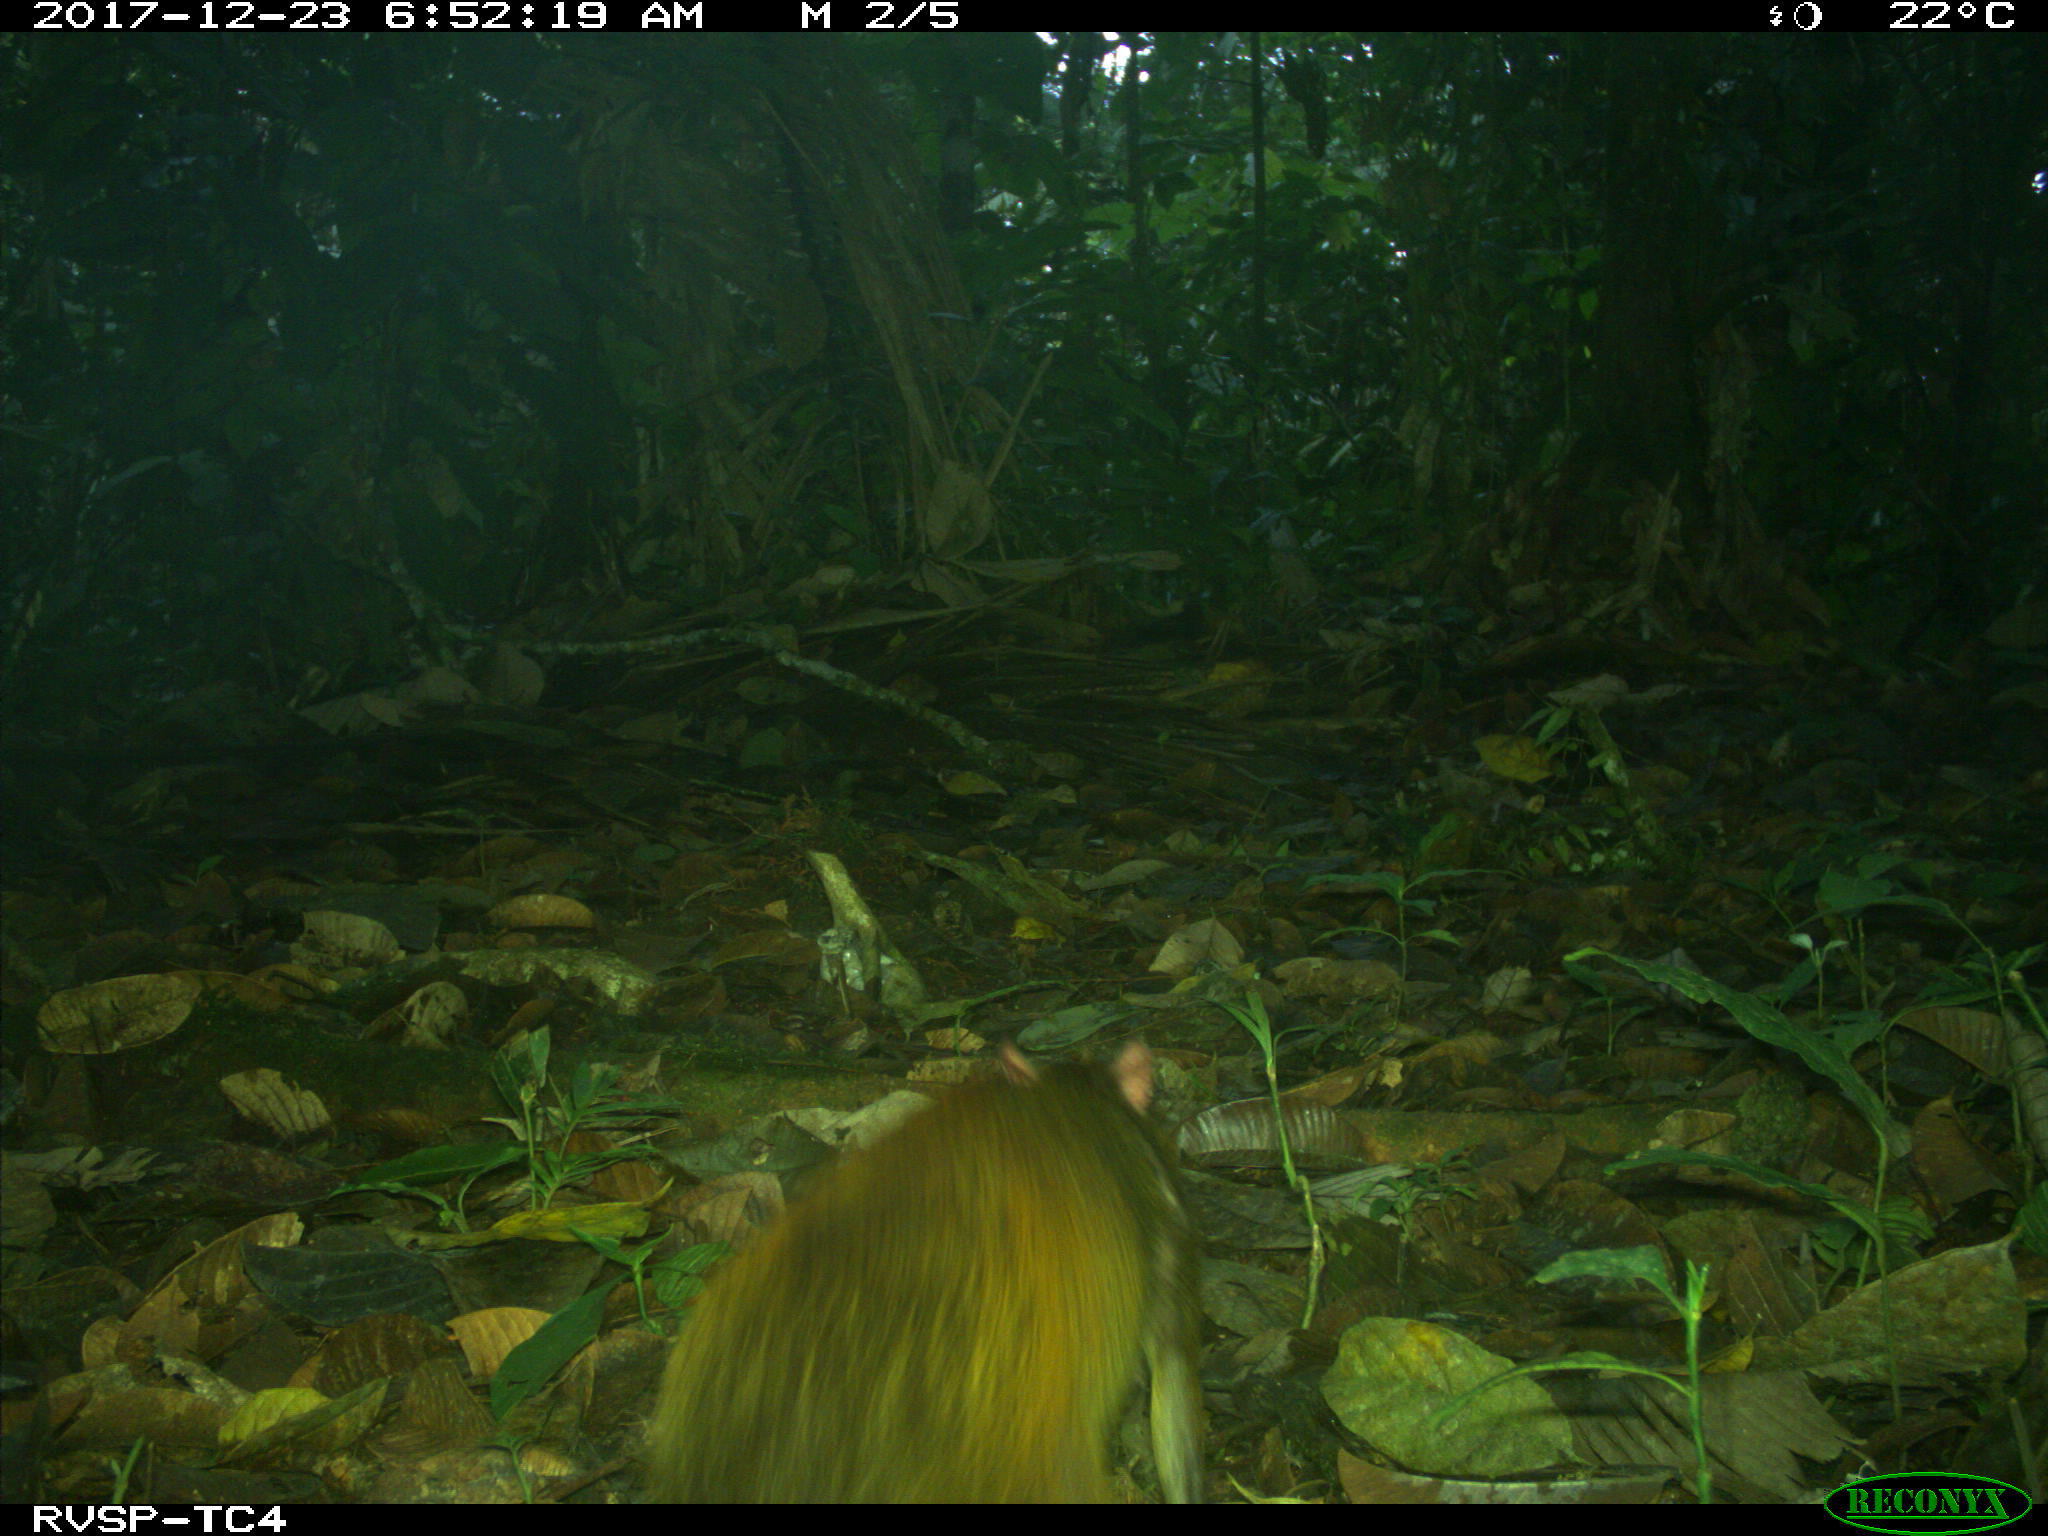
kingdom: Animalia
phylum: Chordata
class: Mammalia
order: Rodentia
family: Dasyproctidae
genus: Dasyprocta
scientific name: Dasyprocta punctata
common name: Central american agouti
